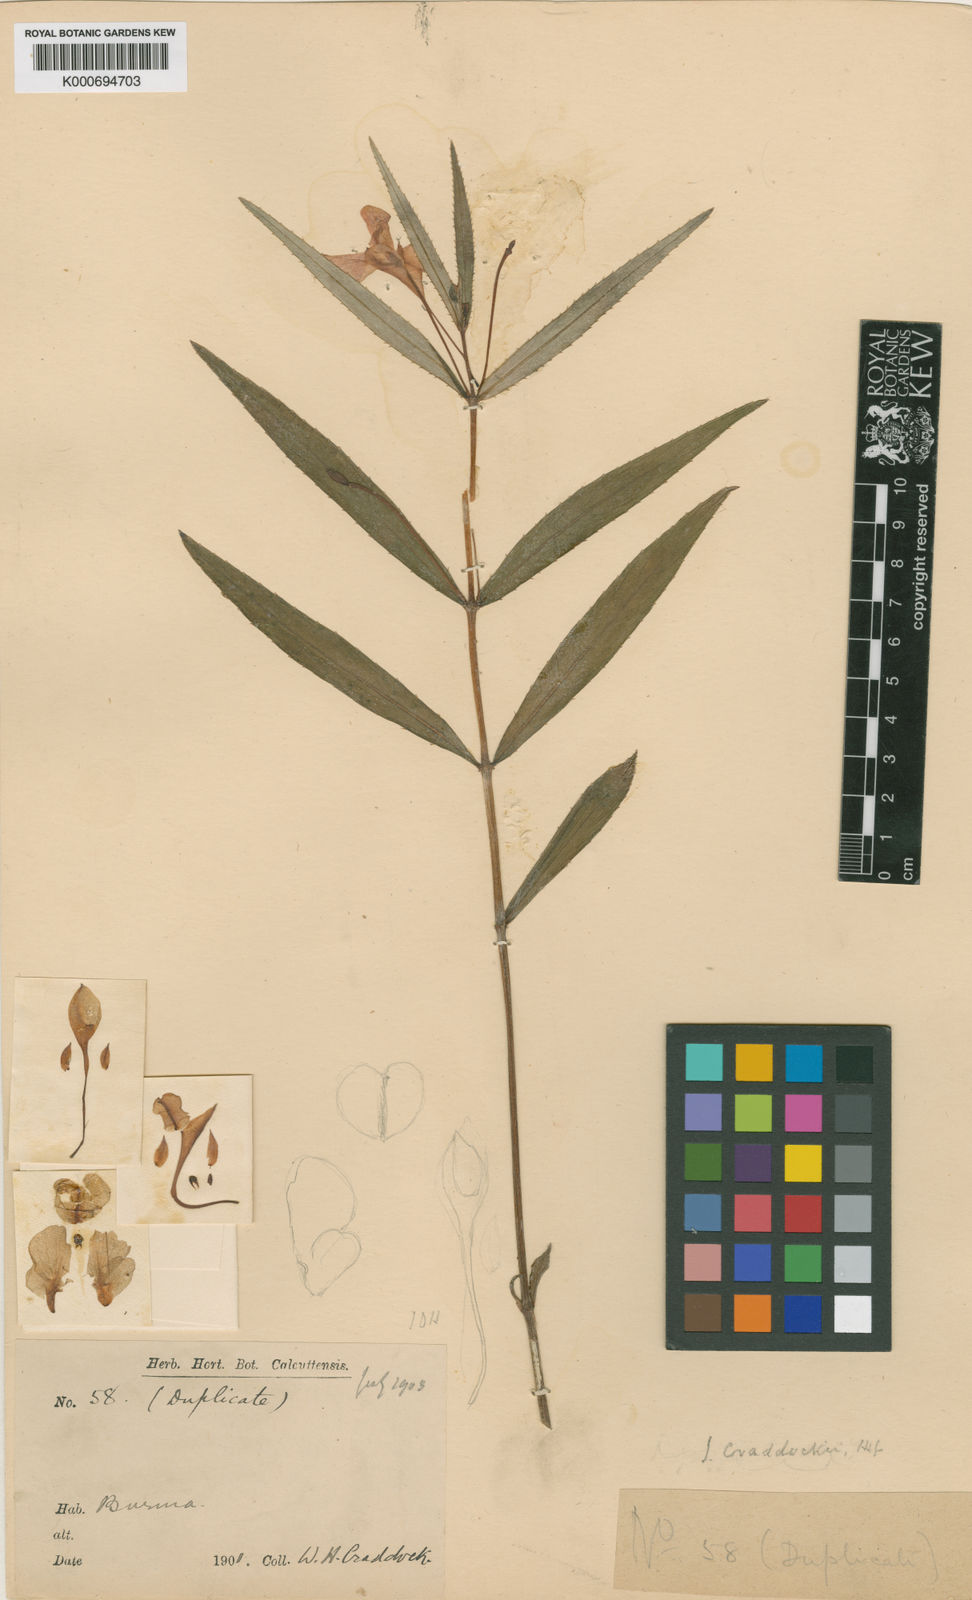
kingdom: Plantae
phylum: Tracheophyta
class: Magnoliopsida
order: Ericales
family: Balsaminaceae
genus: Impatiens
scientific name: Impatiens masonii
